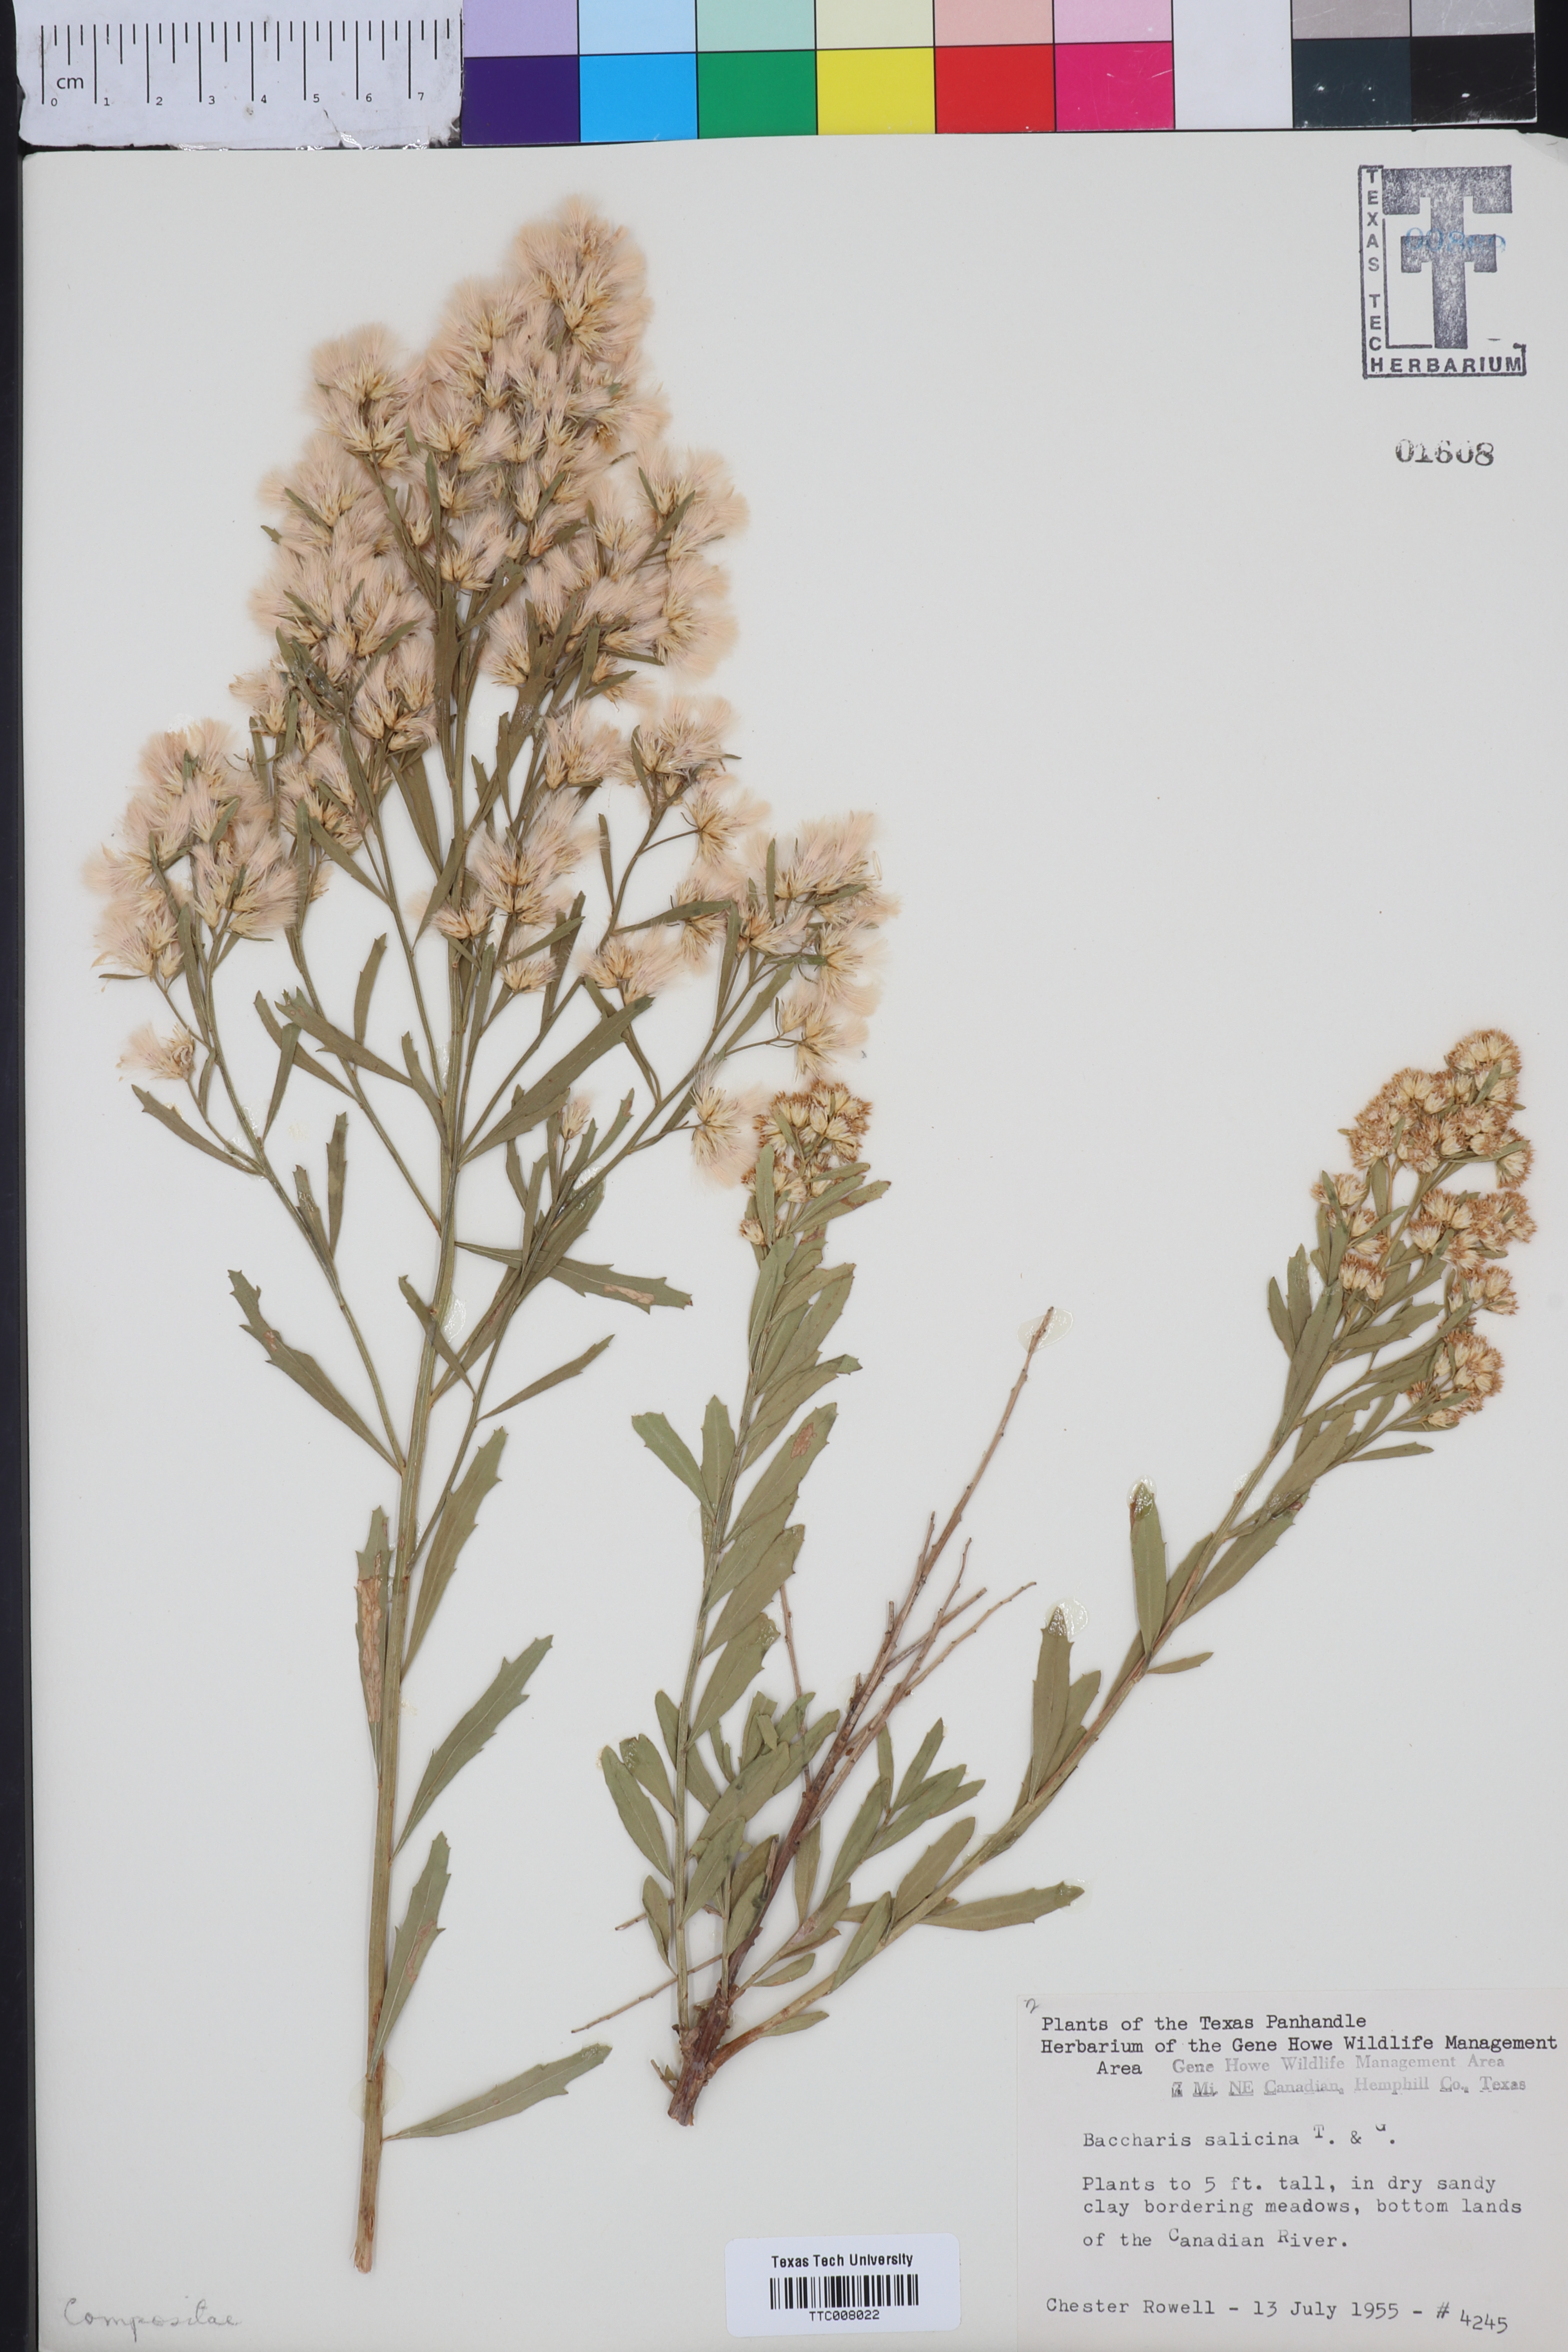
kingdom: Plantae
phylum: Tracheophyta
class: Magnoliopsida
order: Asterales
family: Asteraceae
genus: Baccharis
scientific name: Baccharis salicina
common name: Willow baccharis
